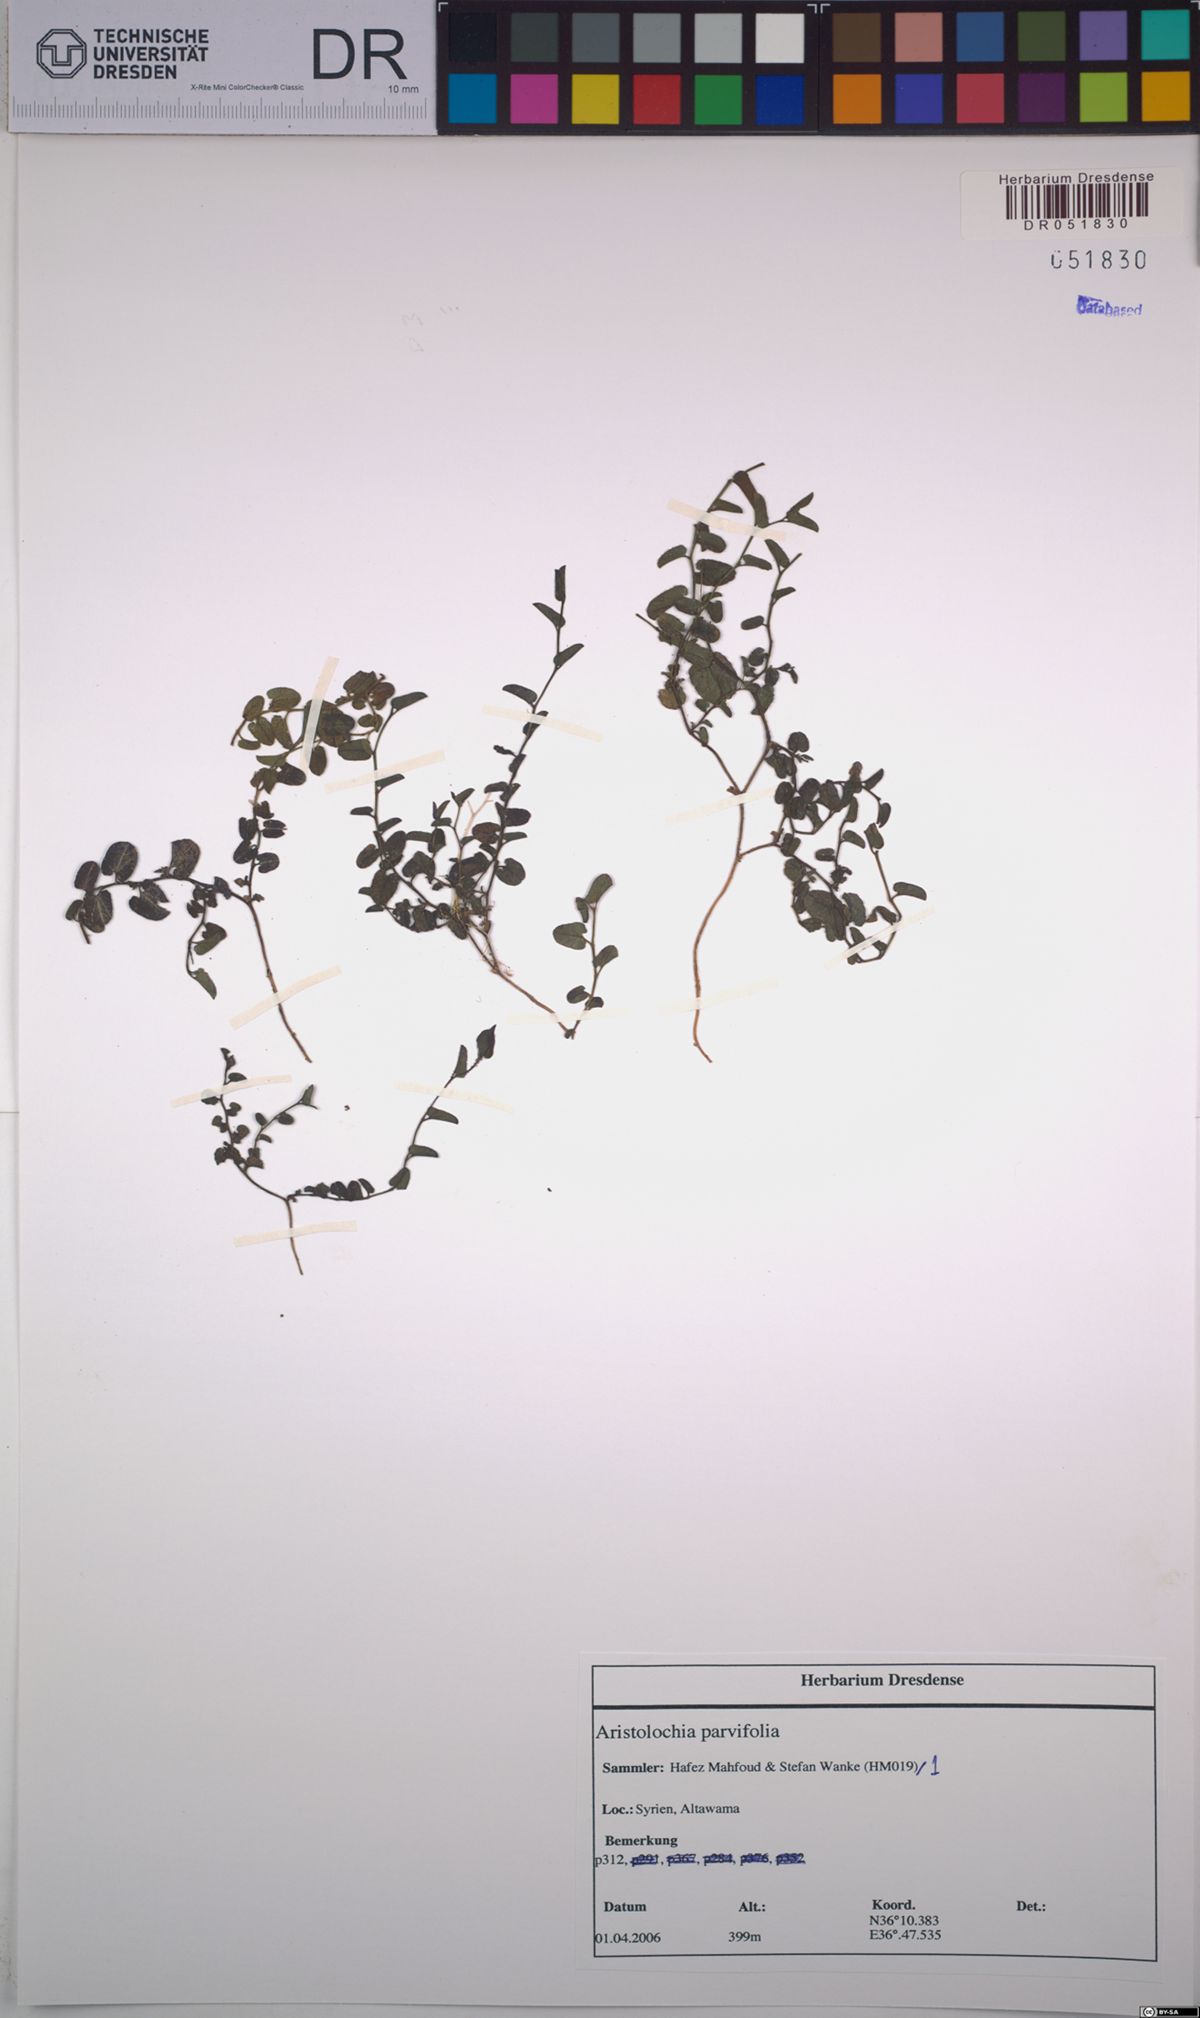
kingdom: Plantae
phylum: Tracheophyta
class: Magnoliopsida
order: Piperales
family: Aristolochiaceae
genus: Aristolochia
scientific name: Aristolochia parvifolia
